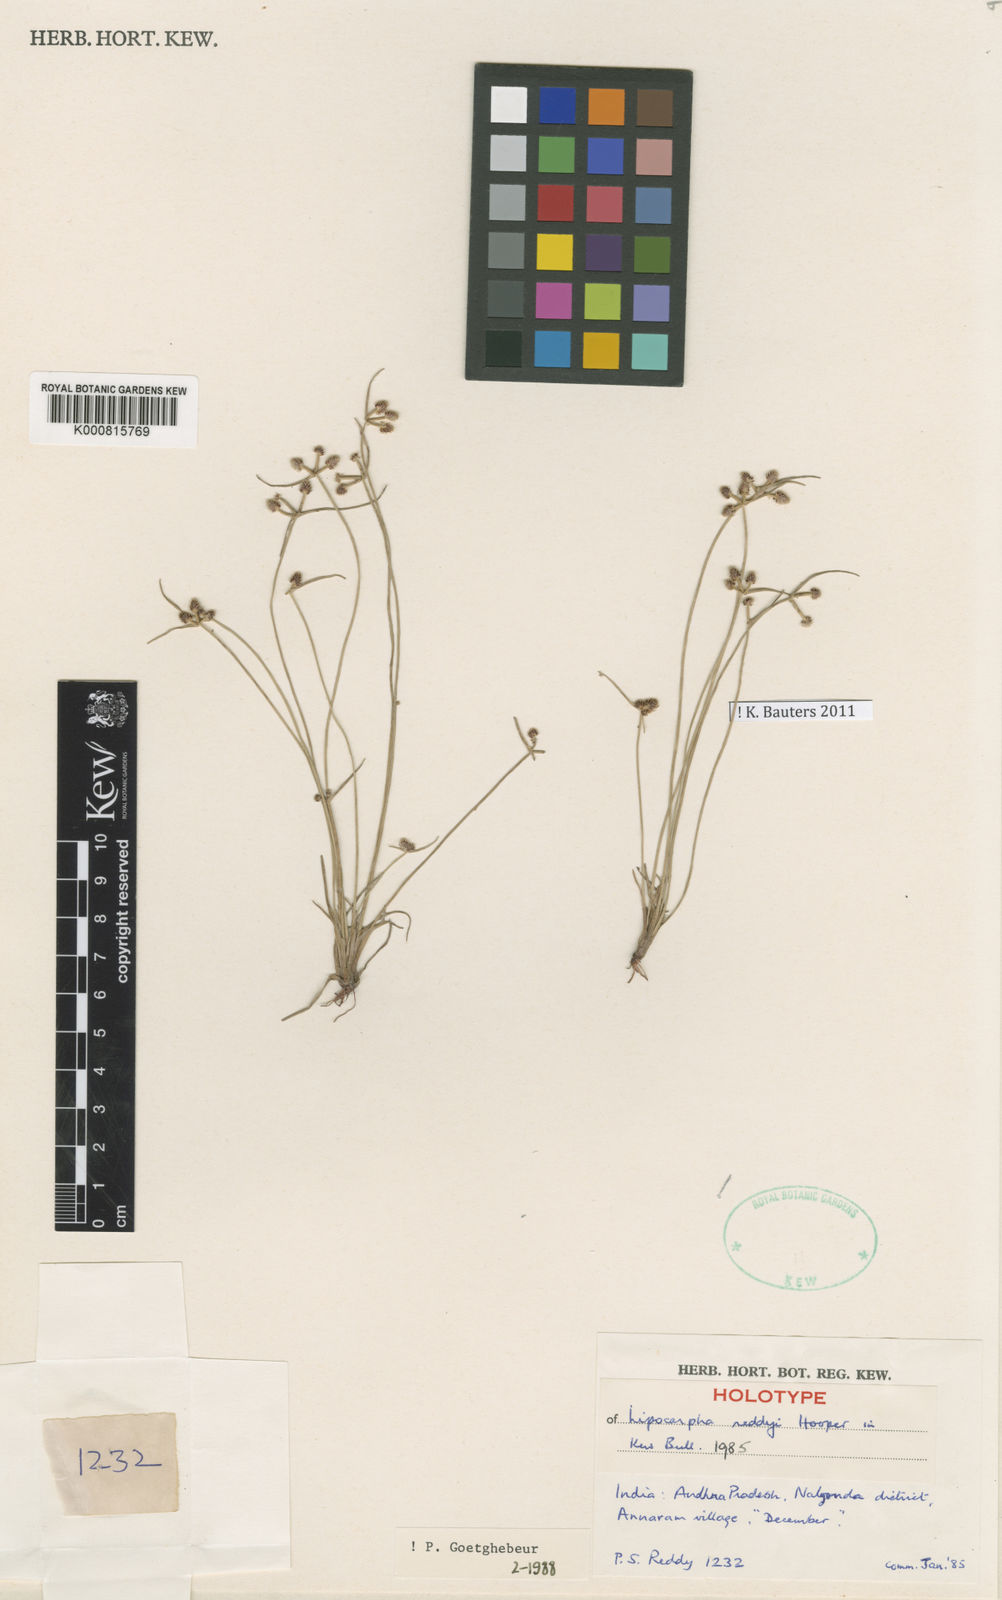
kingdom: Plantae
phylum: Tracheophyta
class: Liliopsida
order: Poales
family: Cyperaceae
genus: Cyperus
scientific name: Cyperus reddyi
